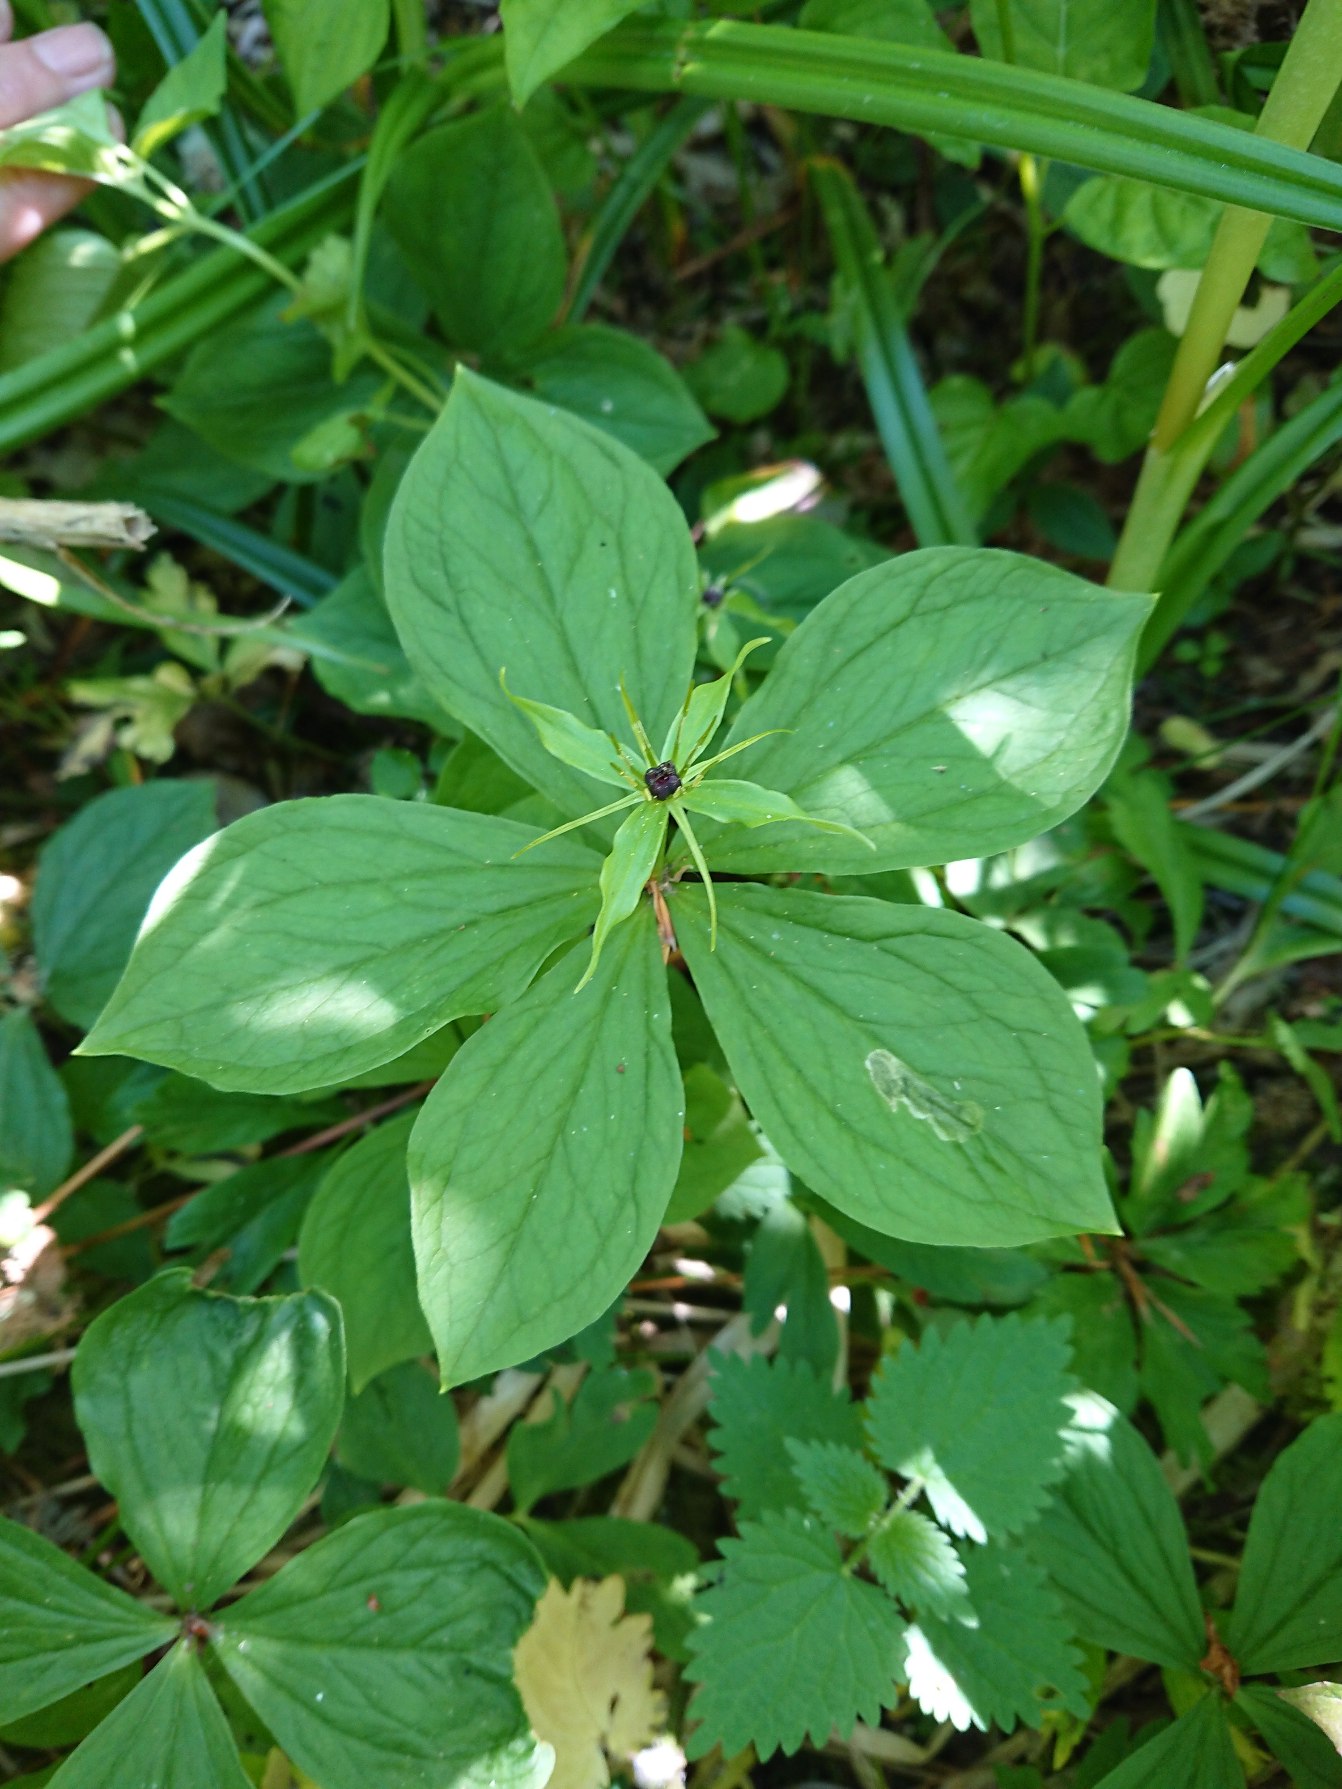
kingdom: Plantae
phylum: Tracheophyta
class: Liliopsida
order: Liliales
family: Melanthiaceae
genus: Paris
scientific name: Paris quadrifolia
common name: Firblad
